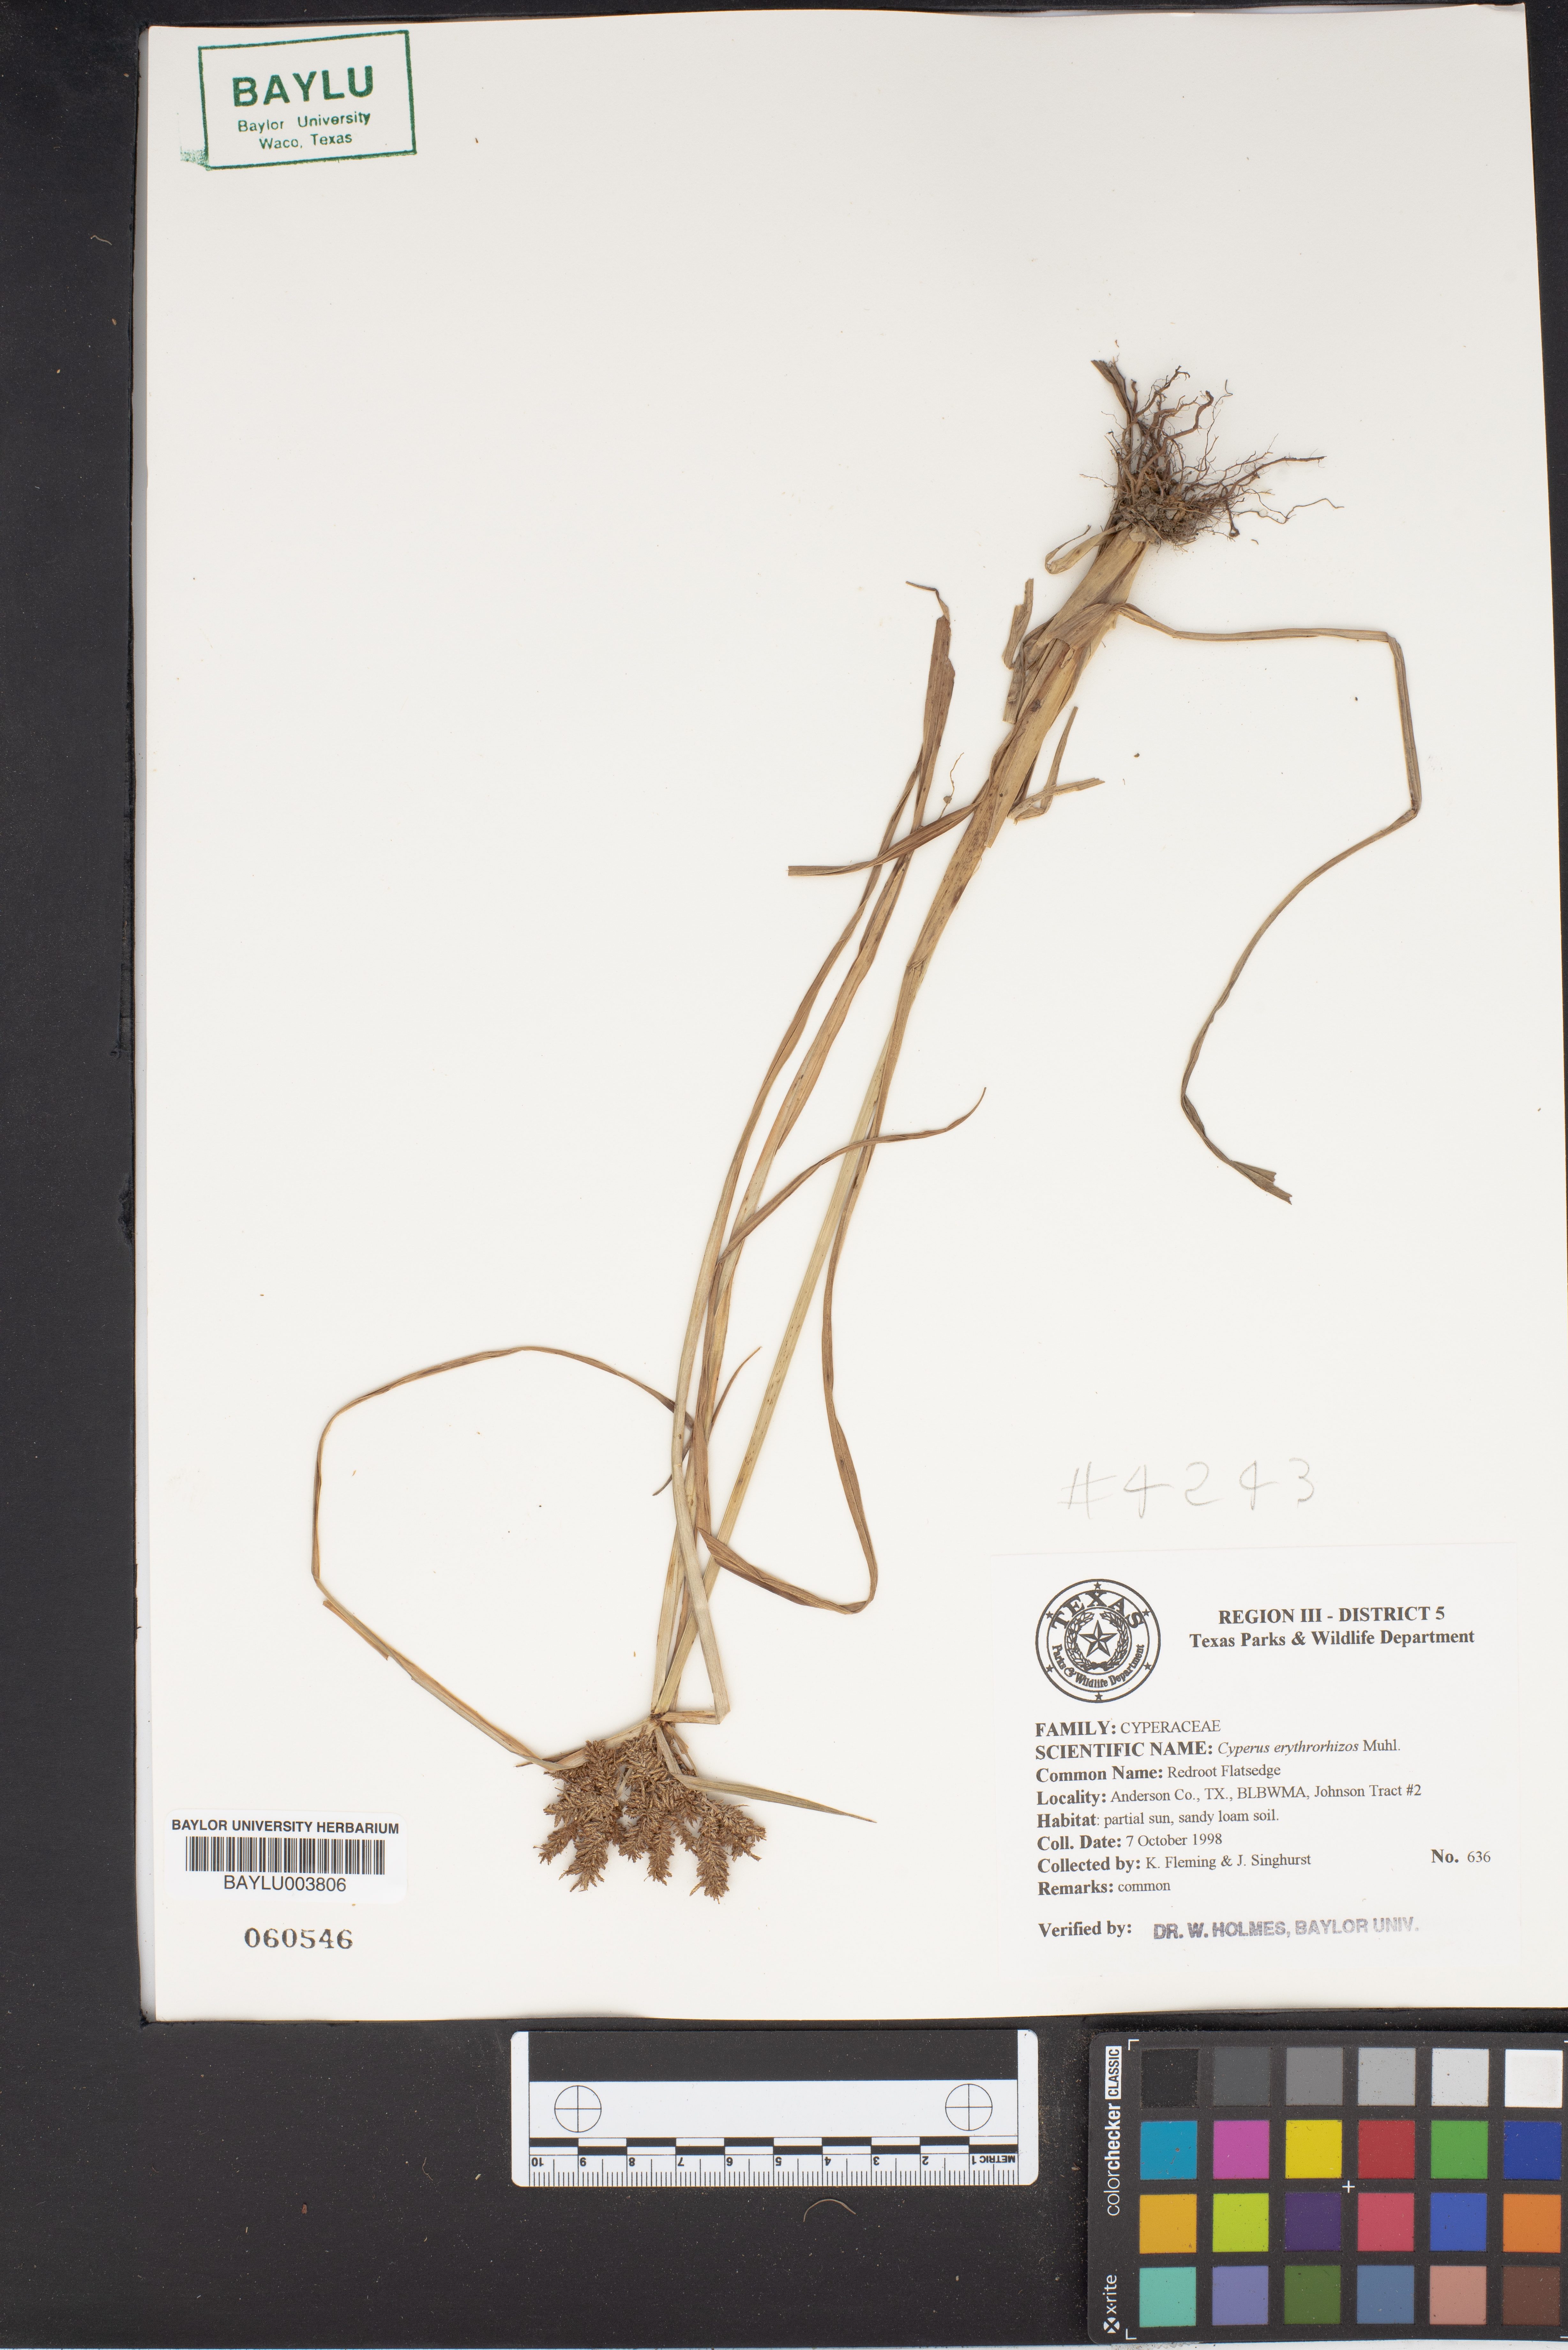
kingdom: Plantae
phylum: Tracheophyta
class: Liliopsida
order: Poales
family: Cyperaceae
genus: Cyperus
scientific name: Cyperus erythrorhizos
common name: Red-root flat sedge
